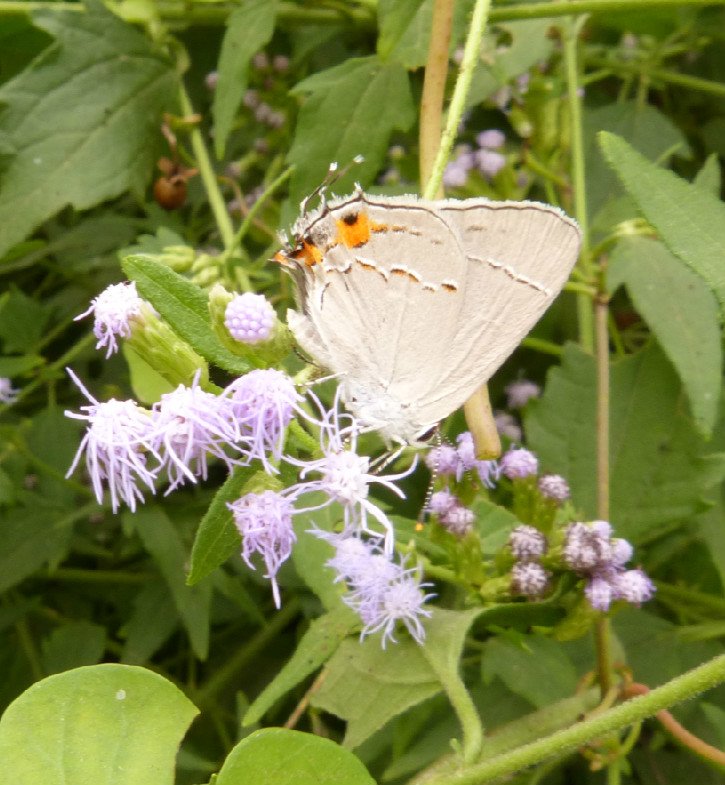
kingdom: Animalia
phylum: Arthropoda
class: Insecta
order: Lepidoptera
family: Lycaenidae
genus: Strymon
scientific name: Strymon melinus
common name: Gray Hairstreak
